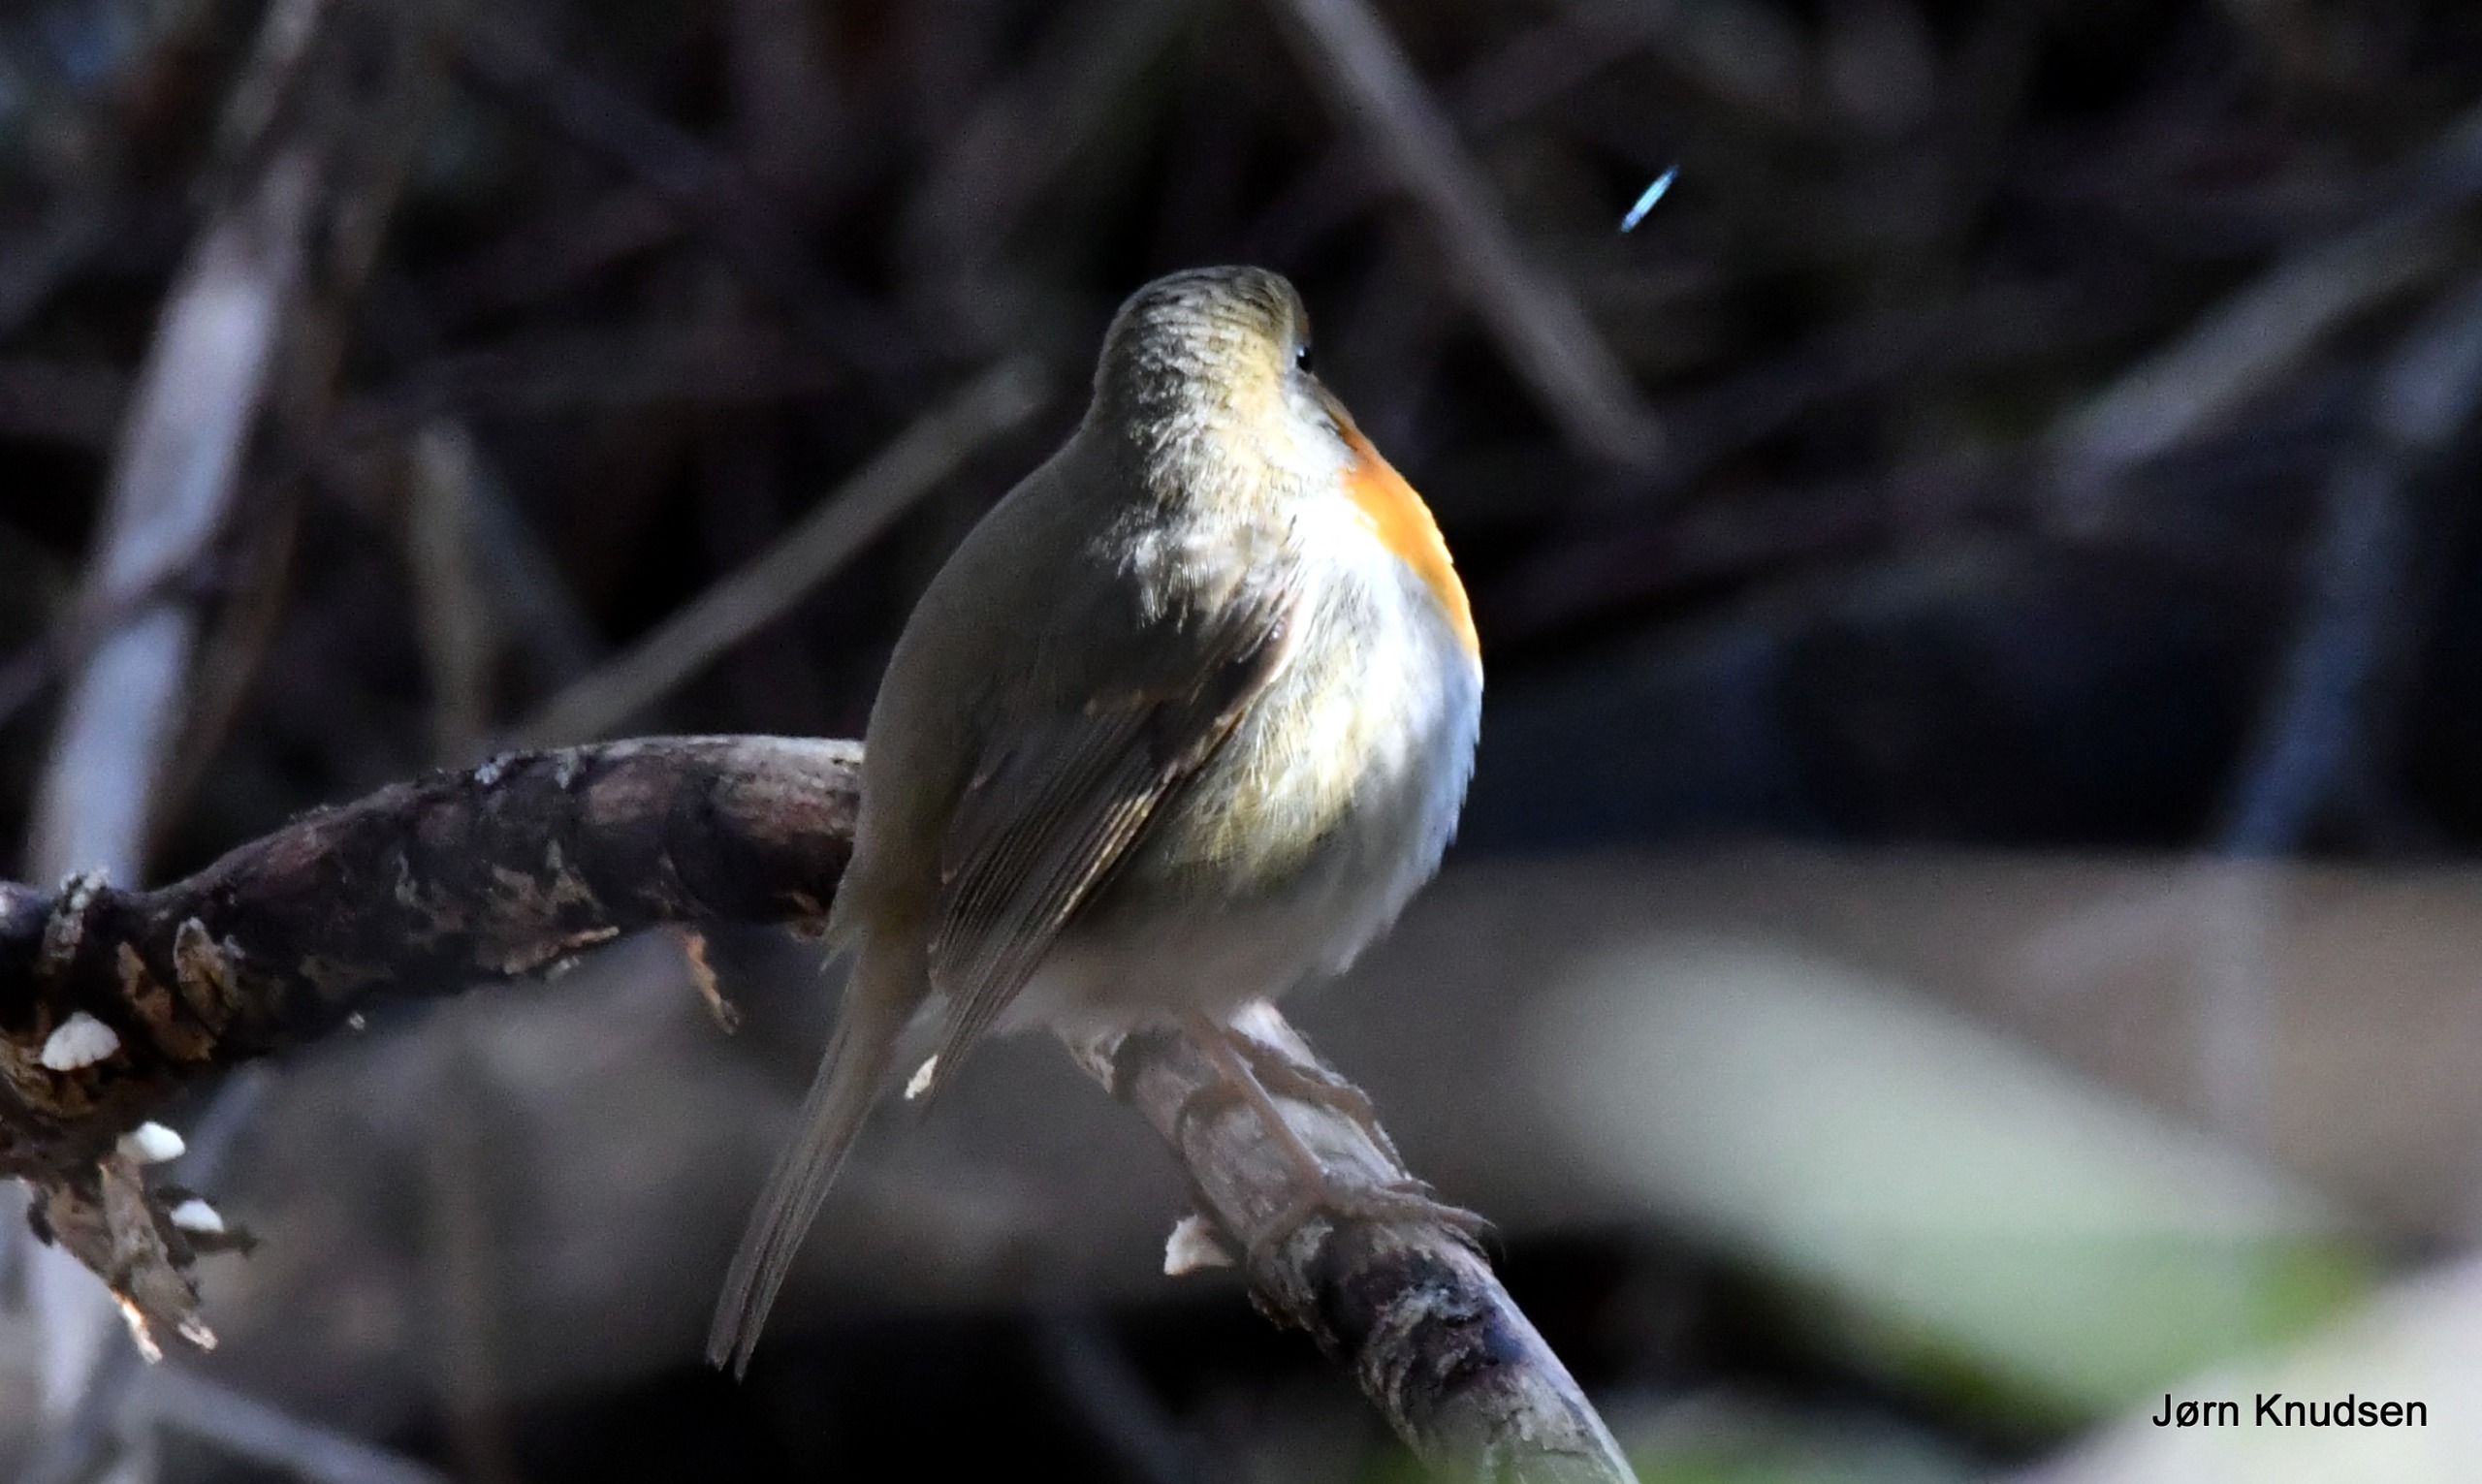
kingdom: Animalia
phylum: Chordata
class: Aves
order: Passeriformes
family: Muscicapidae
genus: Erithacus
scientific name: Erithacus rubecula
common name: Rødhals/rødkælk
